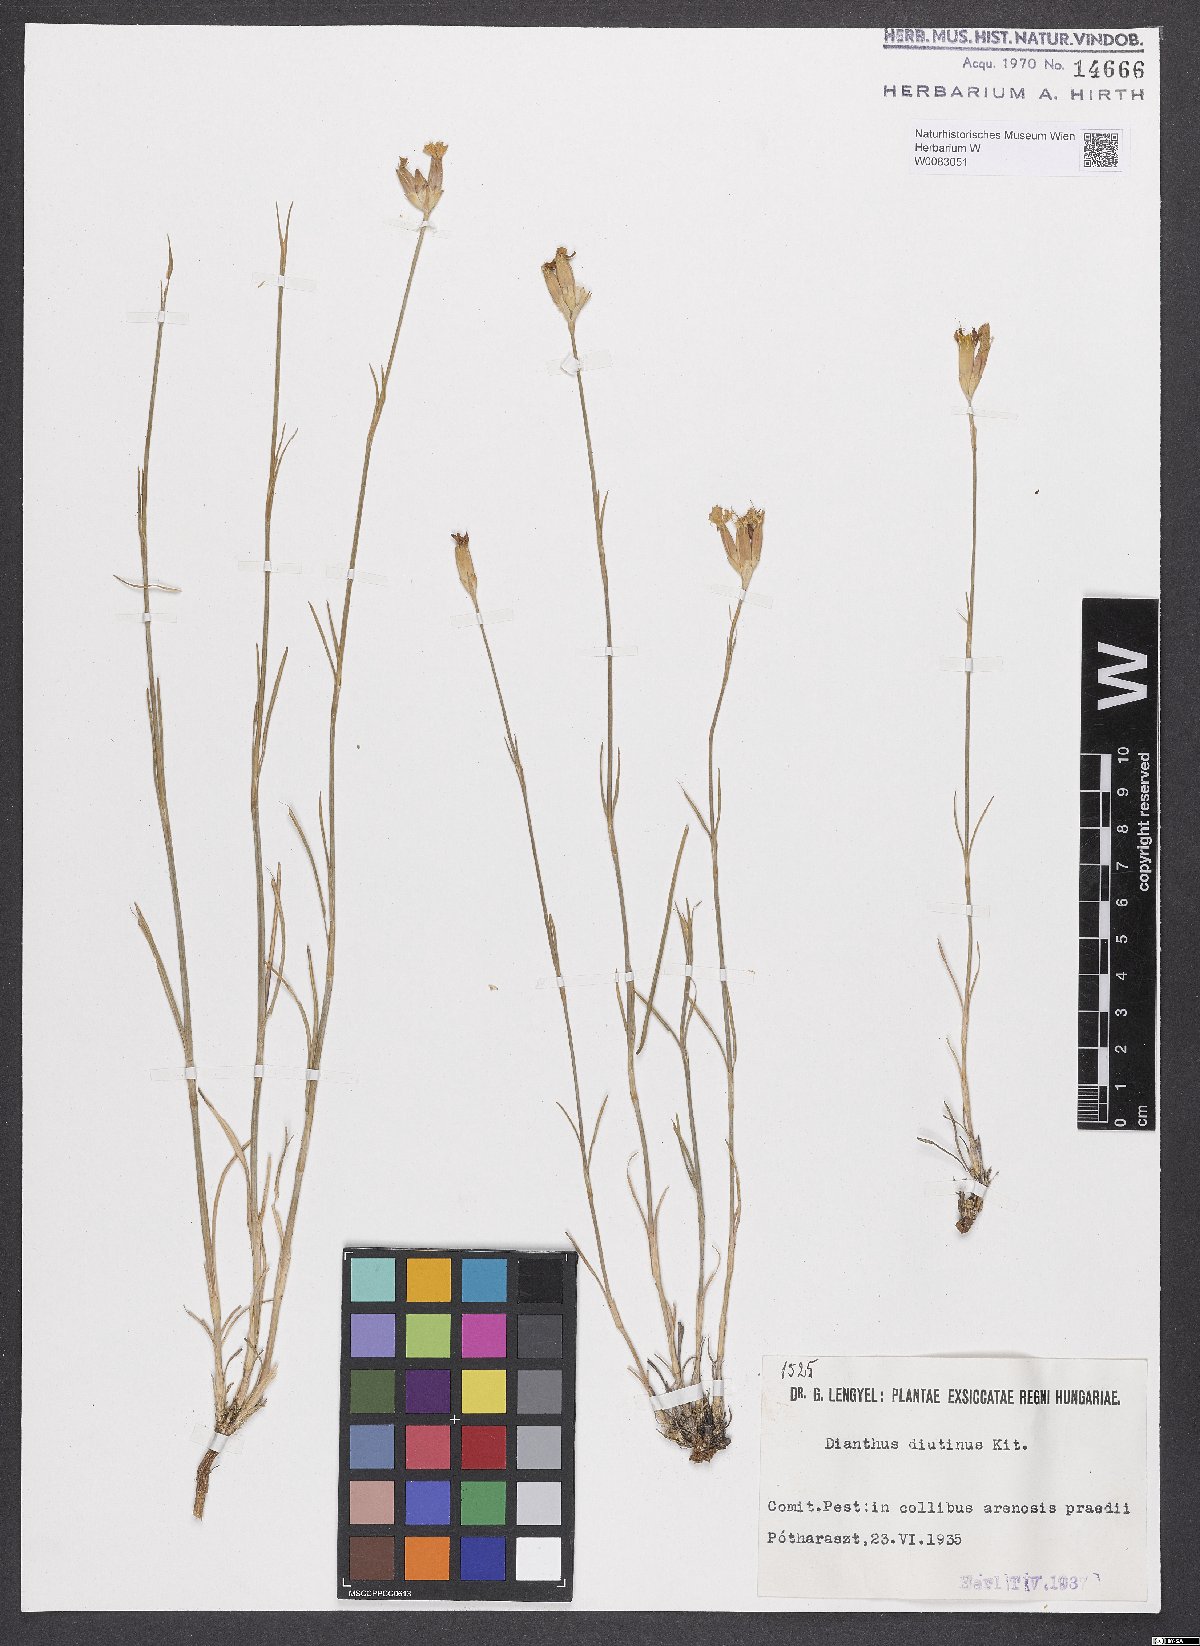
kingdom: Plantae
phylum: Tracheophyta
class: Magnoliopsida
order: Caryophyllales
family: Caryophyllaceae
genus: Dianthus
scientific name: Dianthus polymorphus
